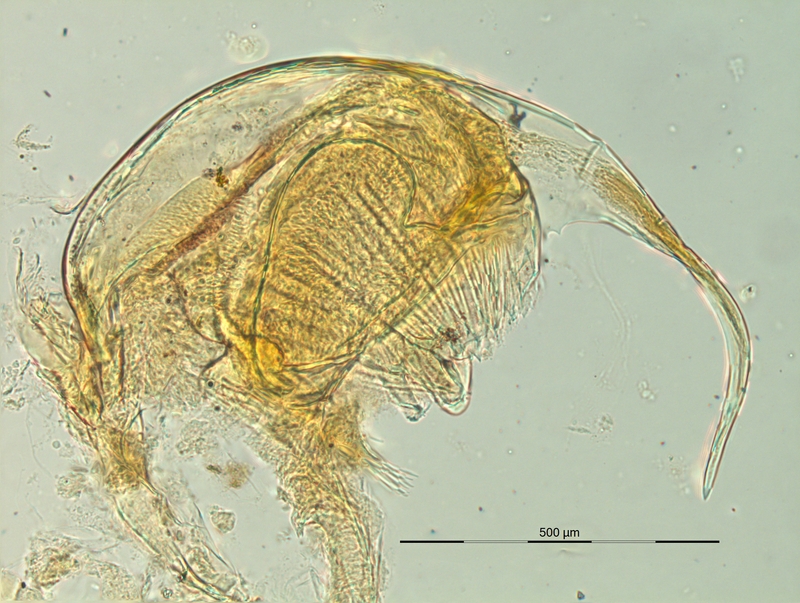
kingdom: Animalia
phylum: Arthropoda
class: Diplopoda
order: Chordeumatida
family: Craspedosomatidae
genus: Pyrgocyphosoma
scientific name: Pyrgocyphosoma brembanum
